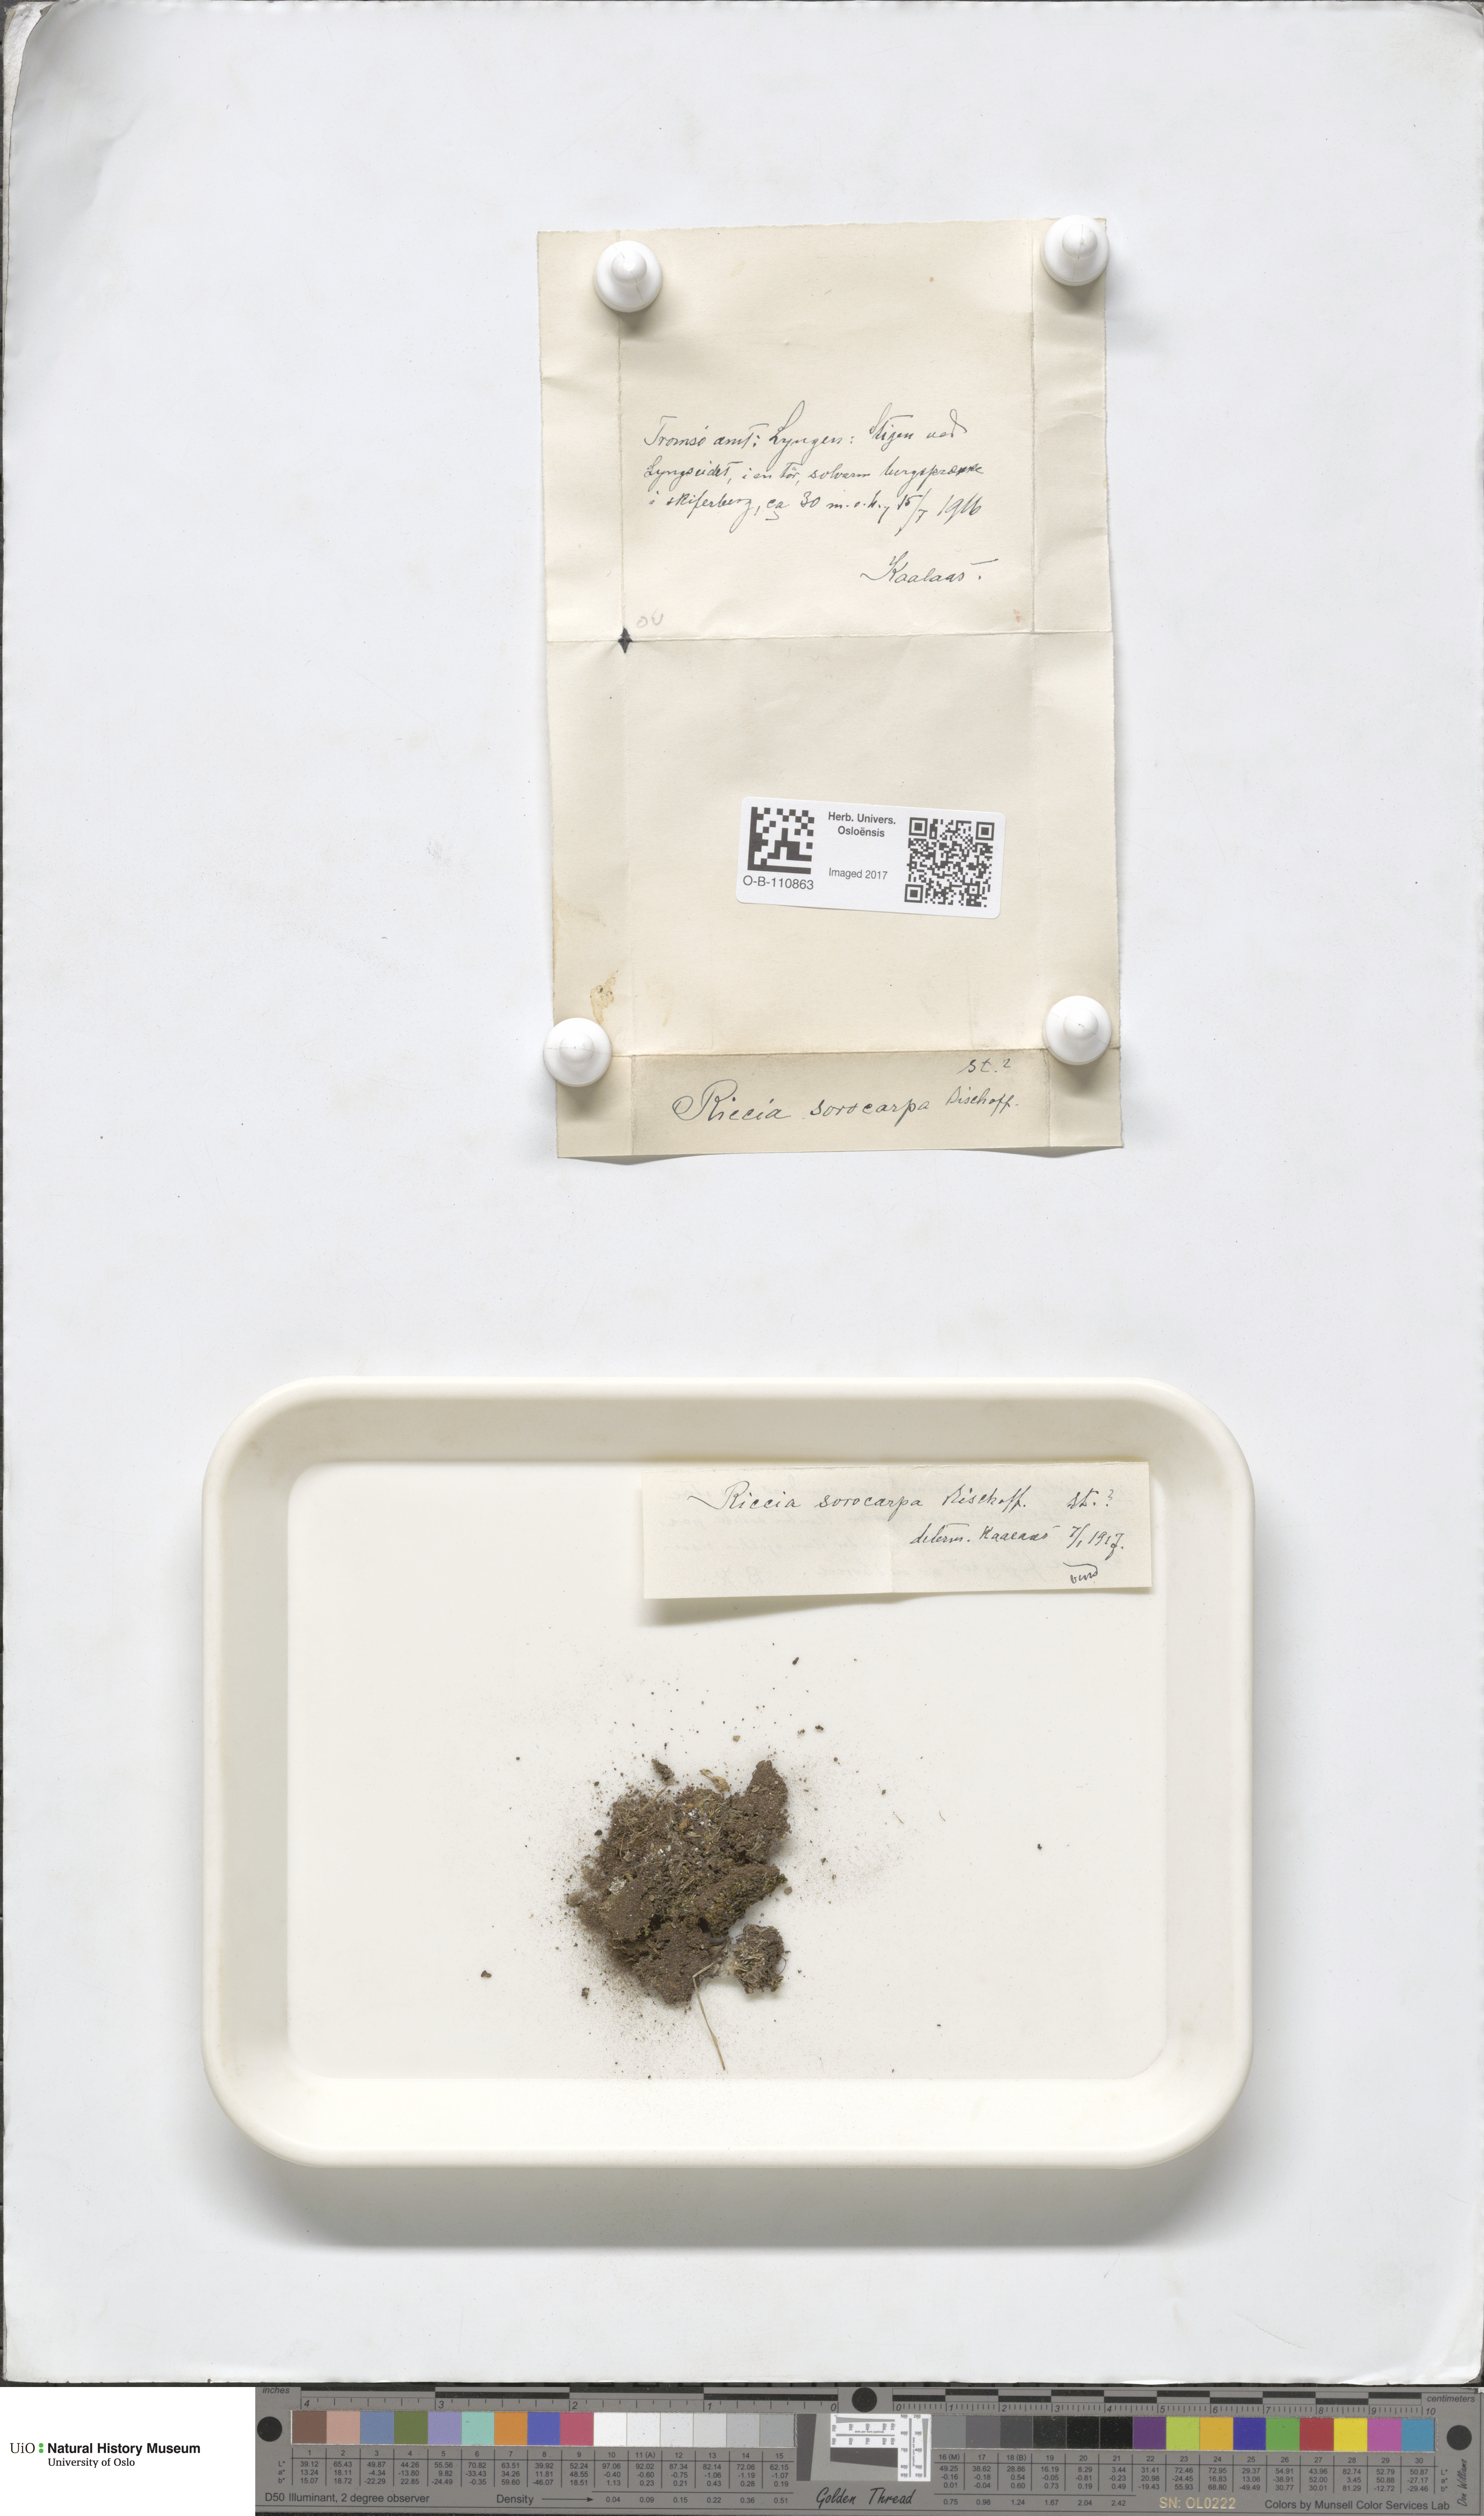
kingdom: Plantae
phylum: Marchantiophyta
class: Marchantiopsida
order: Marchantiales
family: Ricciaceae
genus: Riccia
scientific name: Riccia sorocarpa
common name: Common crystalwort
